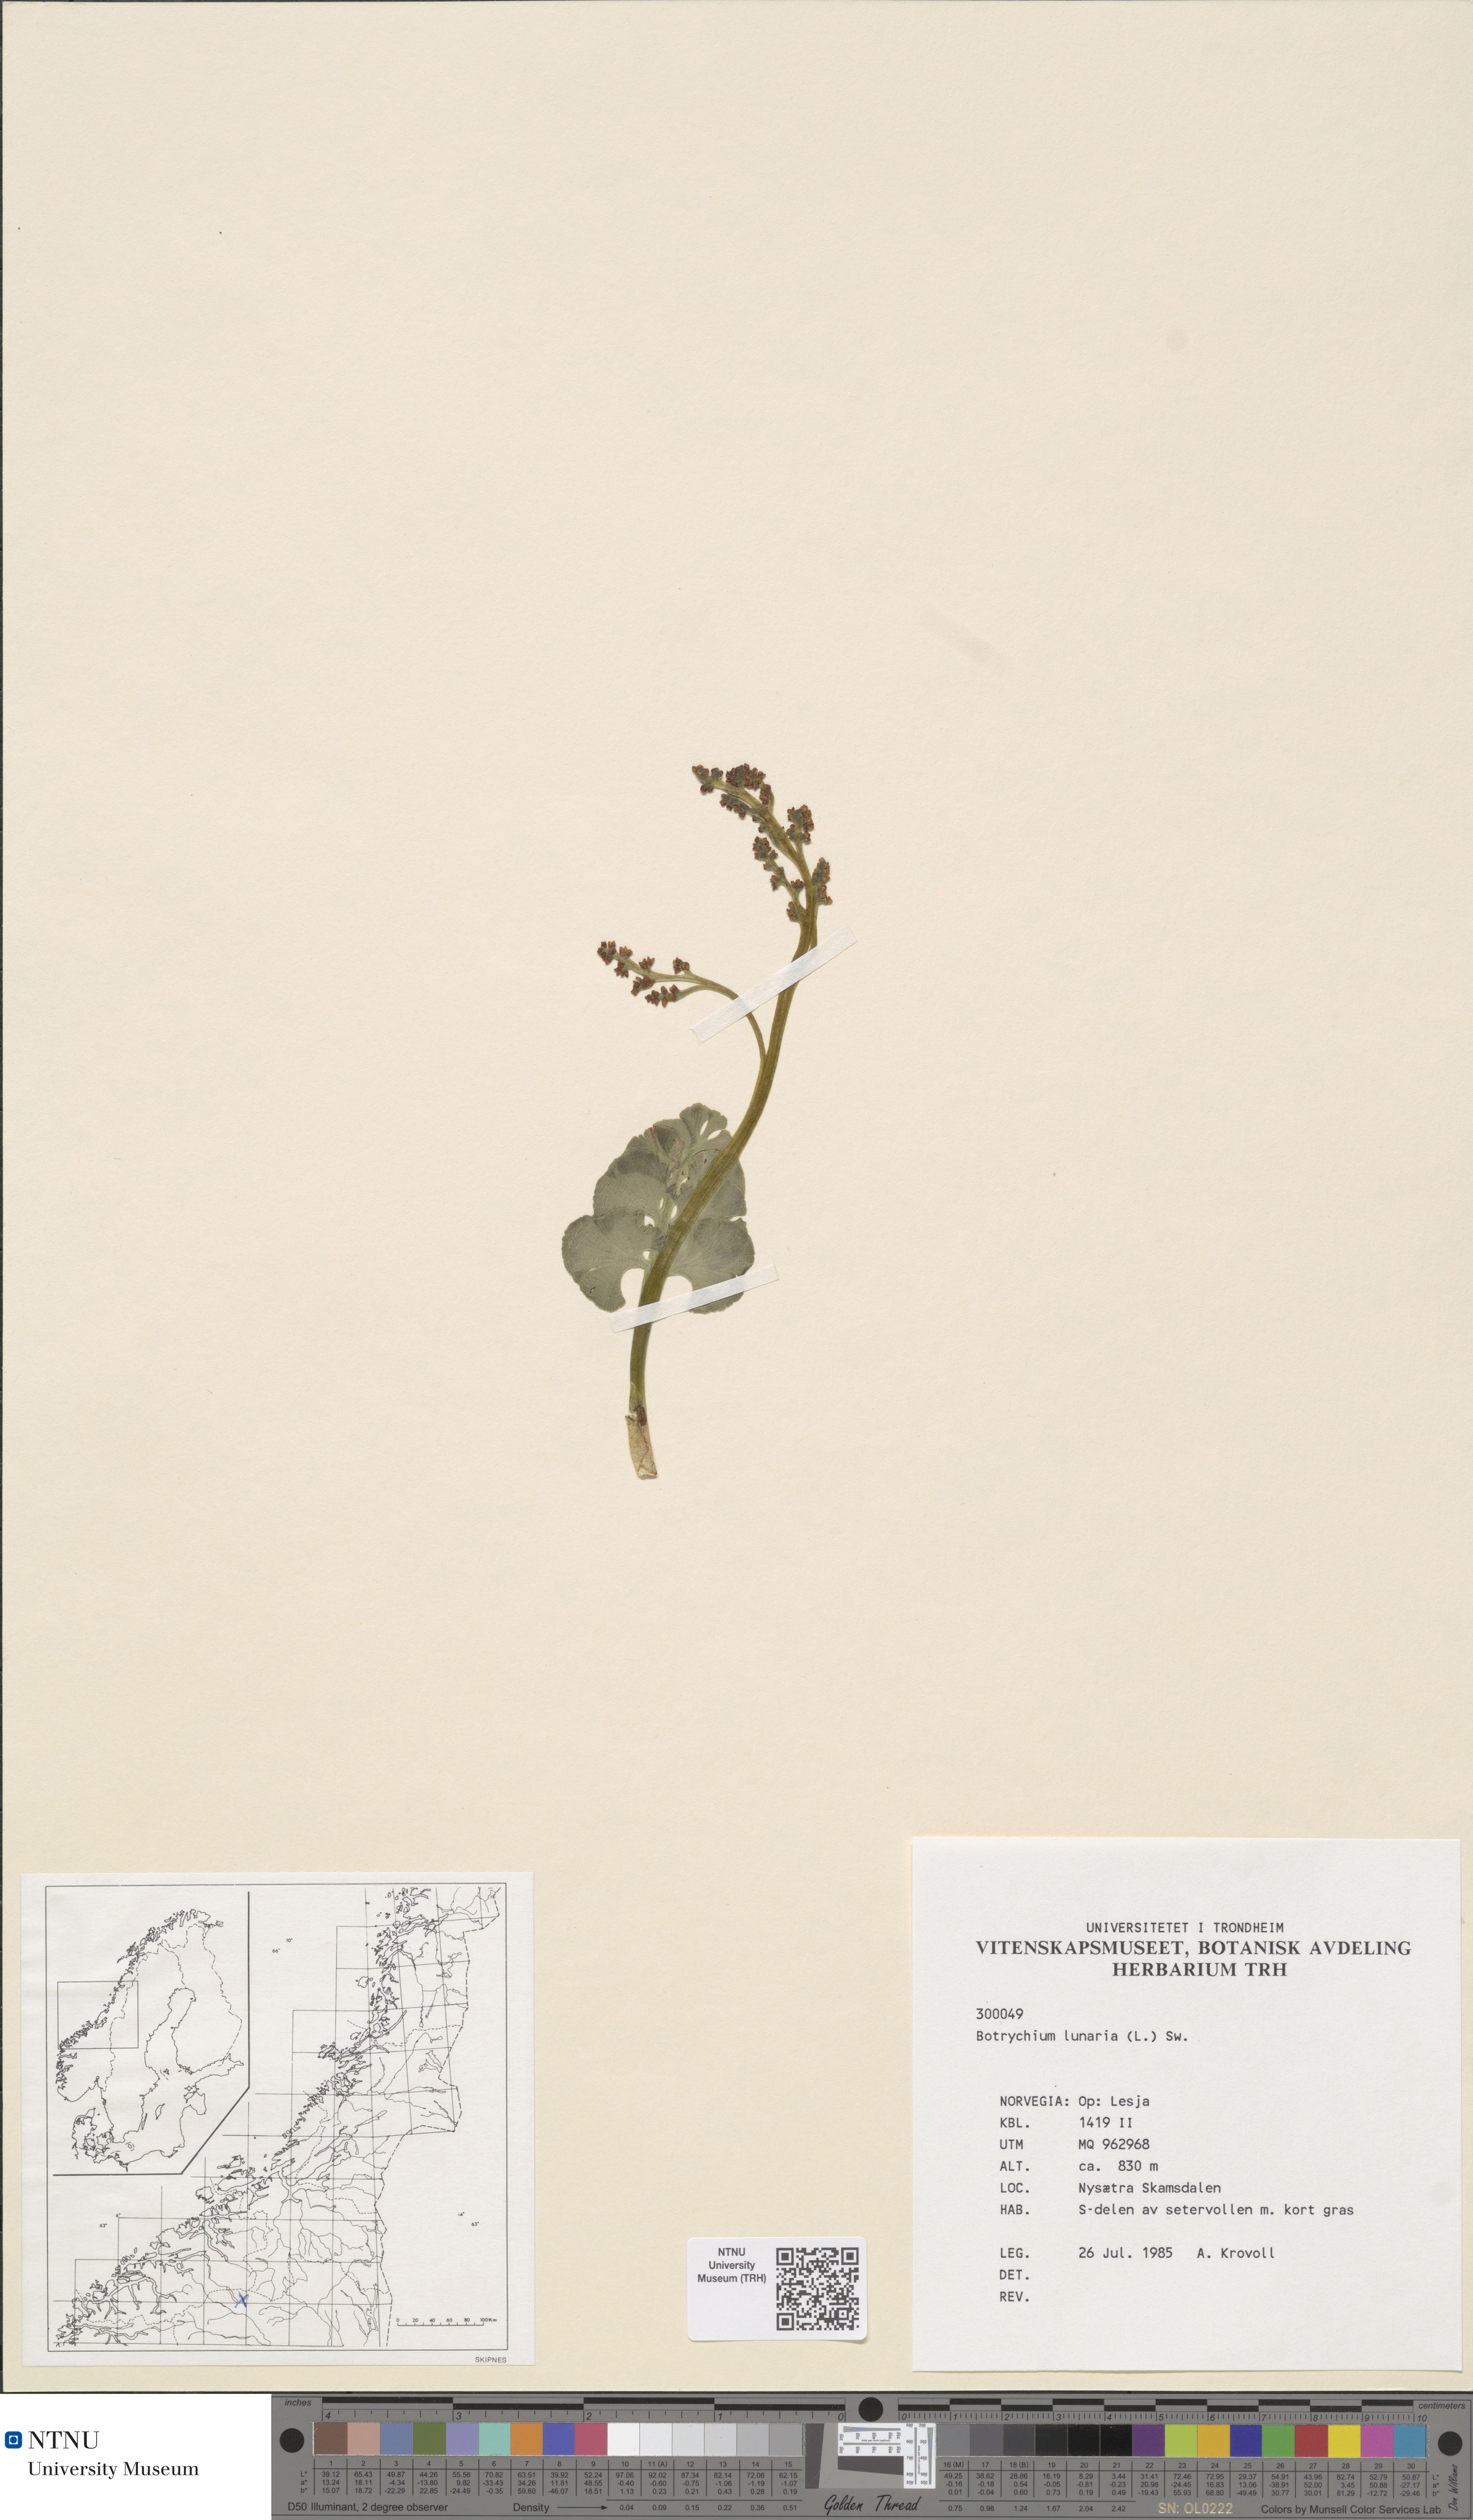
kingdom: Plantae
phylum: Tracheophyta
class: Polypodiopsida
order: Ophioglossales
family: Ophioglossaceae
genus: Botrychium
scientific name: Botrychium lunaria
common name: Moonwort
